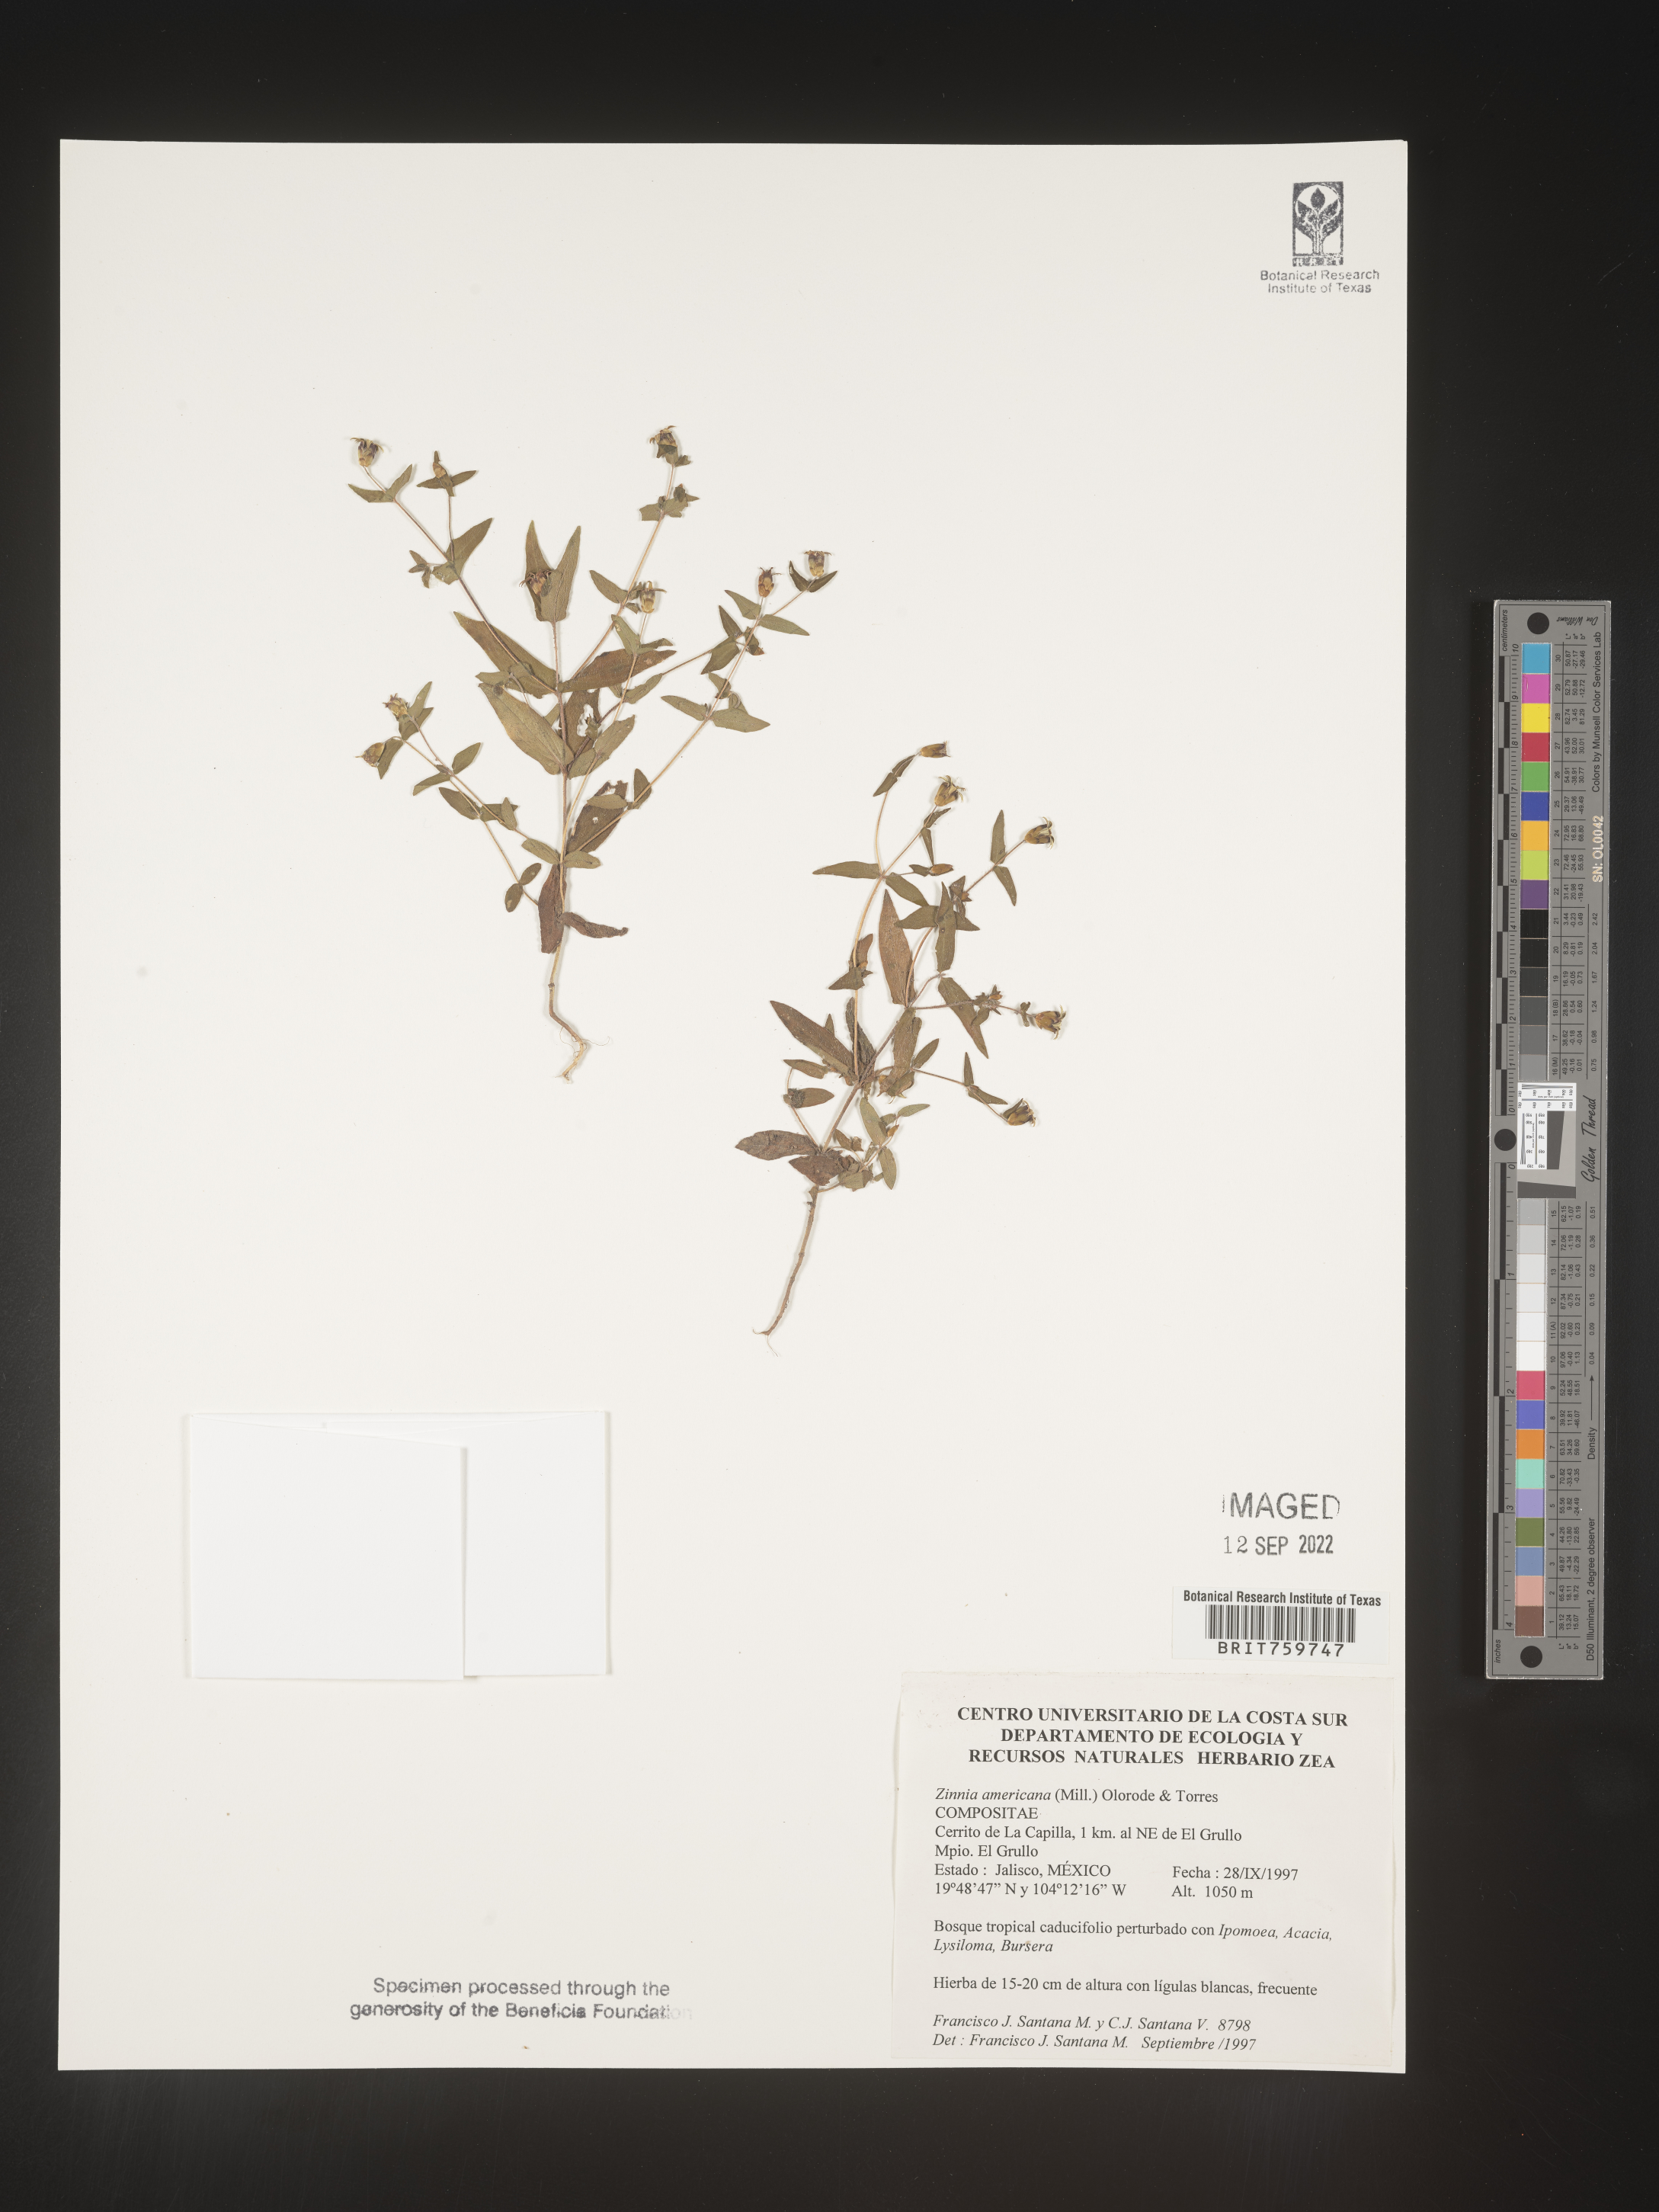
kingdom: Plantae
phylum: Tracheophyta
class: Magnoliopsida
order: Asterales
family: Asteraceae
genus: Zinnia
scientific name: Zinnia
